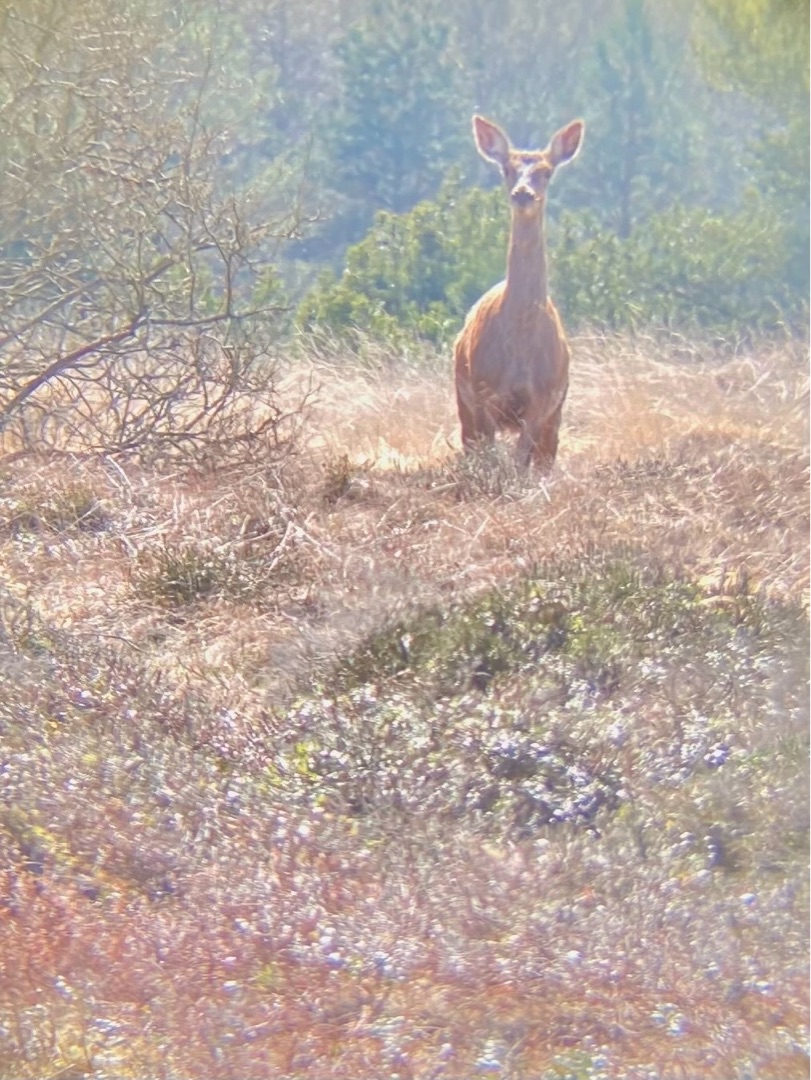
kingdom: Animalia
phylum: Chordata
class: Mammalia
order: Artiodactyla
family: Cervidae
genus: Cervus
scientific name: Cervus elaphus
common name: Krondyr
